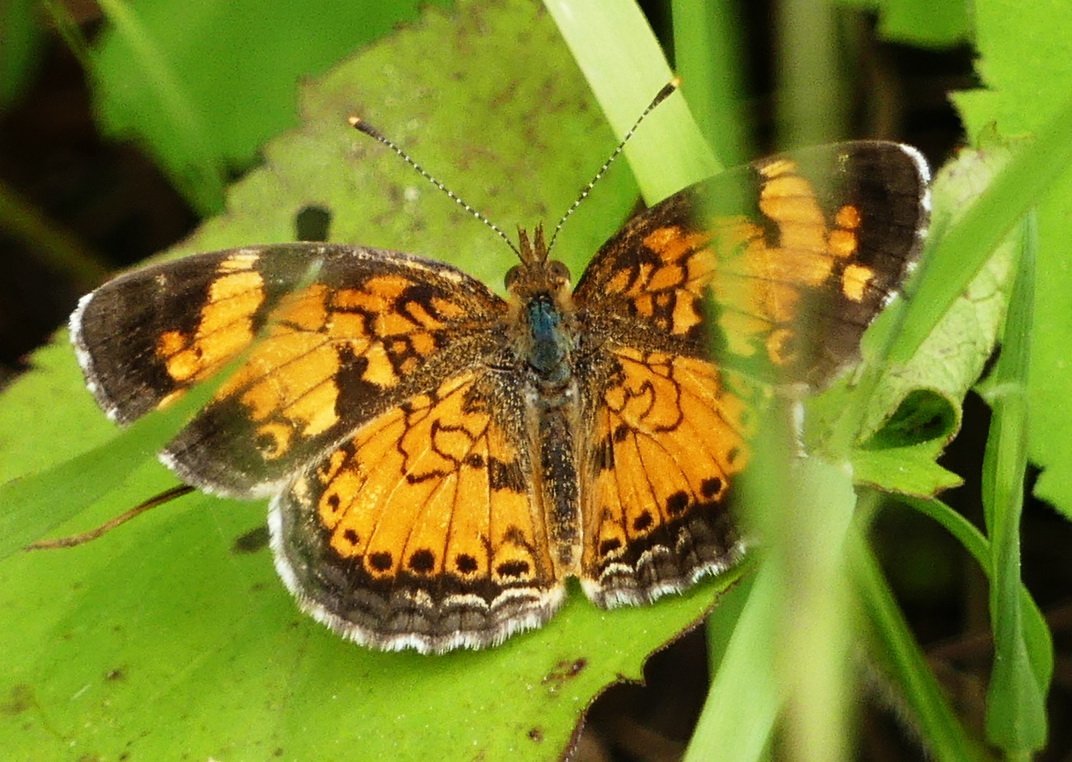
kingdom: Animalia
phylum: Arthropoda
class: Insecta
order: Lepidoptera
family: Nymphalidae
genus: Phyciodes
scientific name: Phyciodes tharos
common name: Northern Crescent
